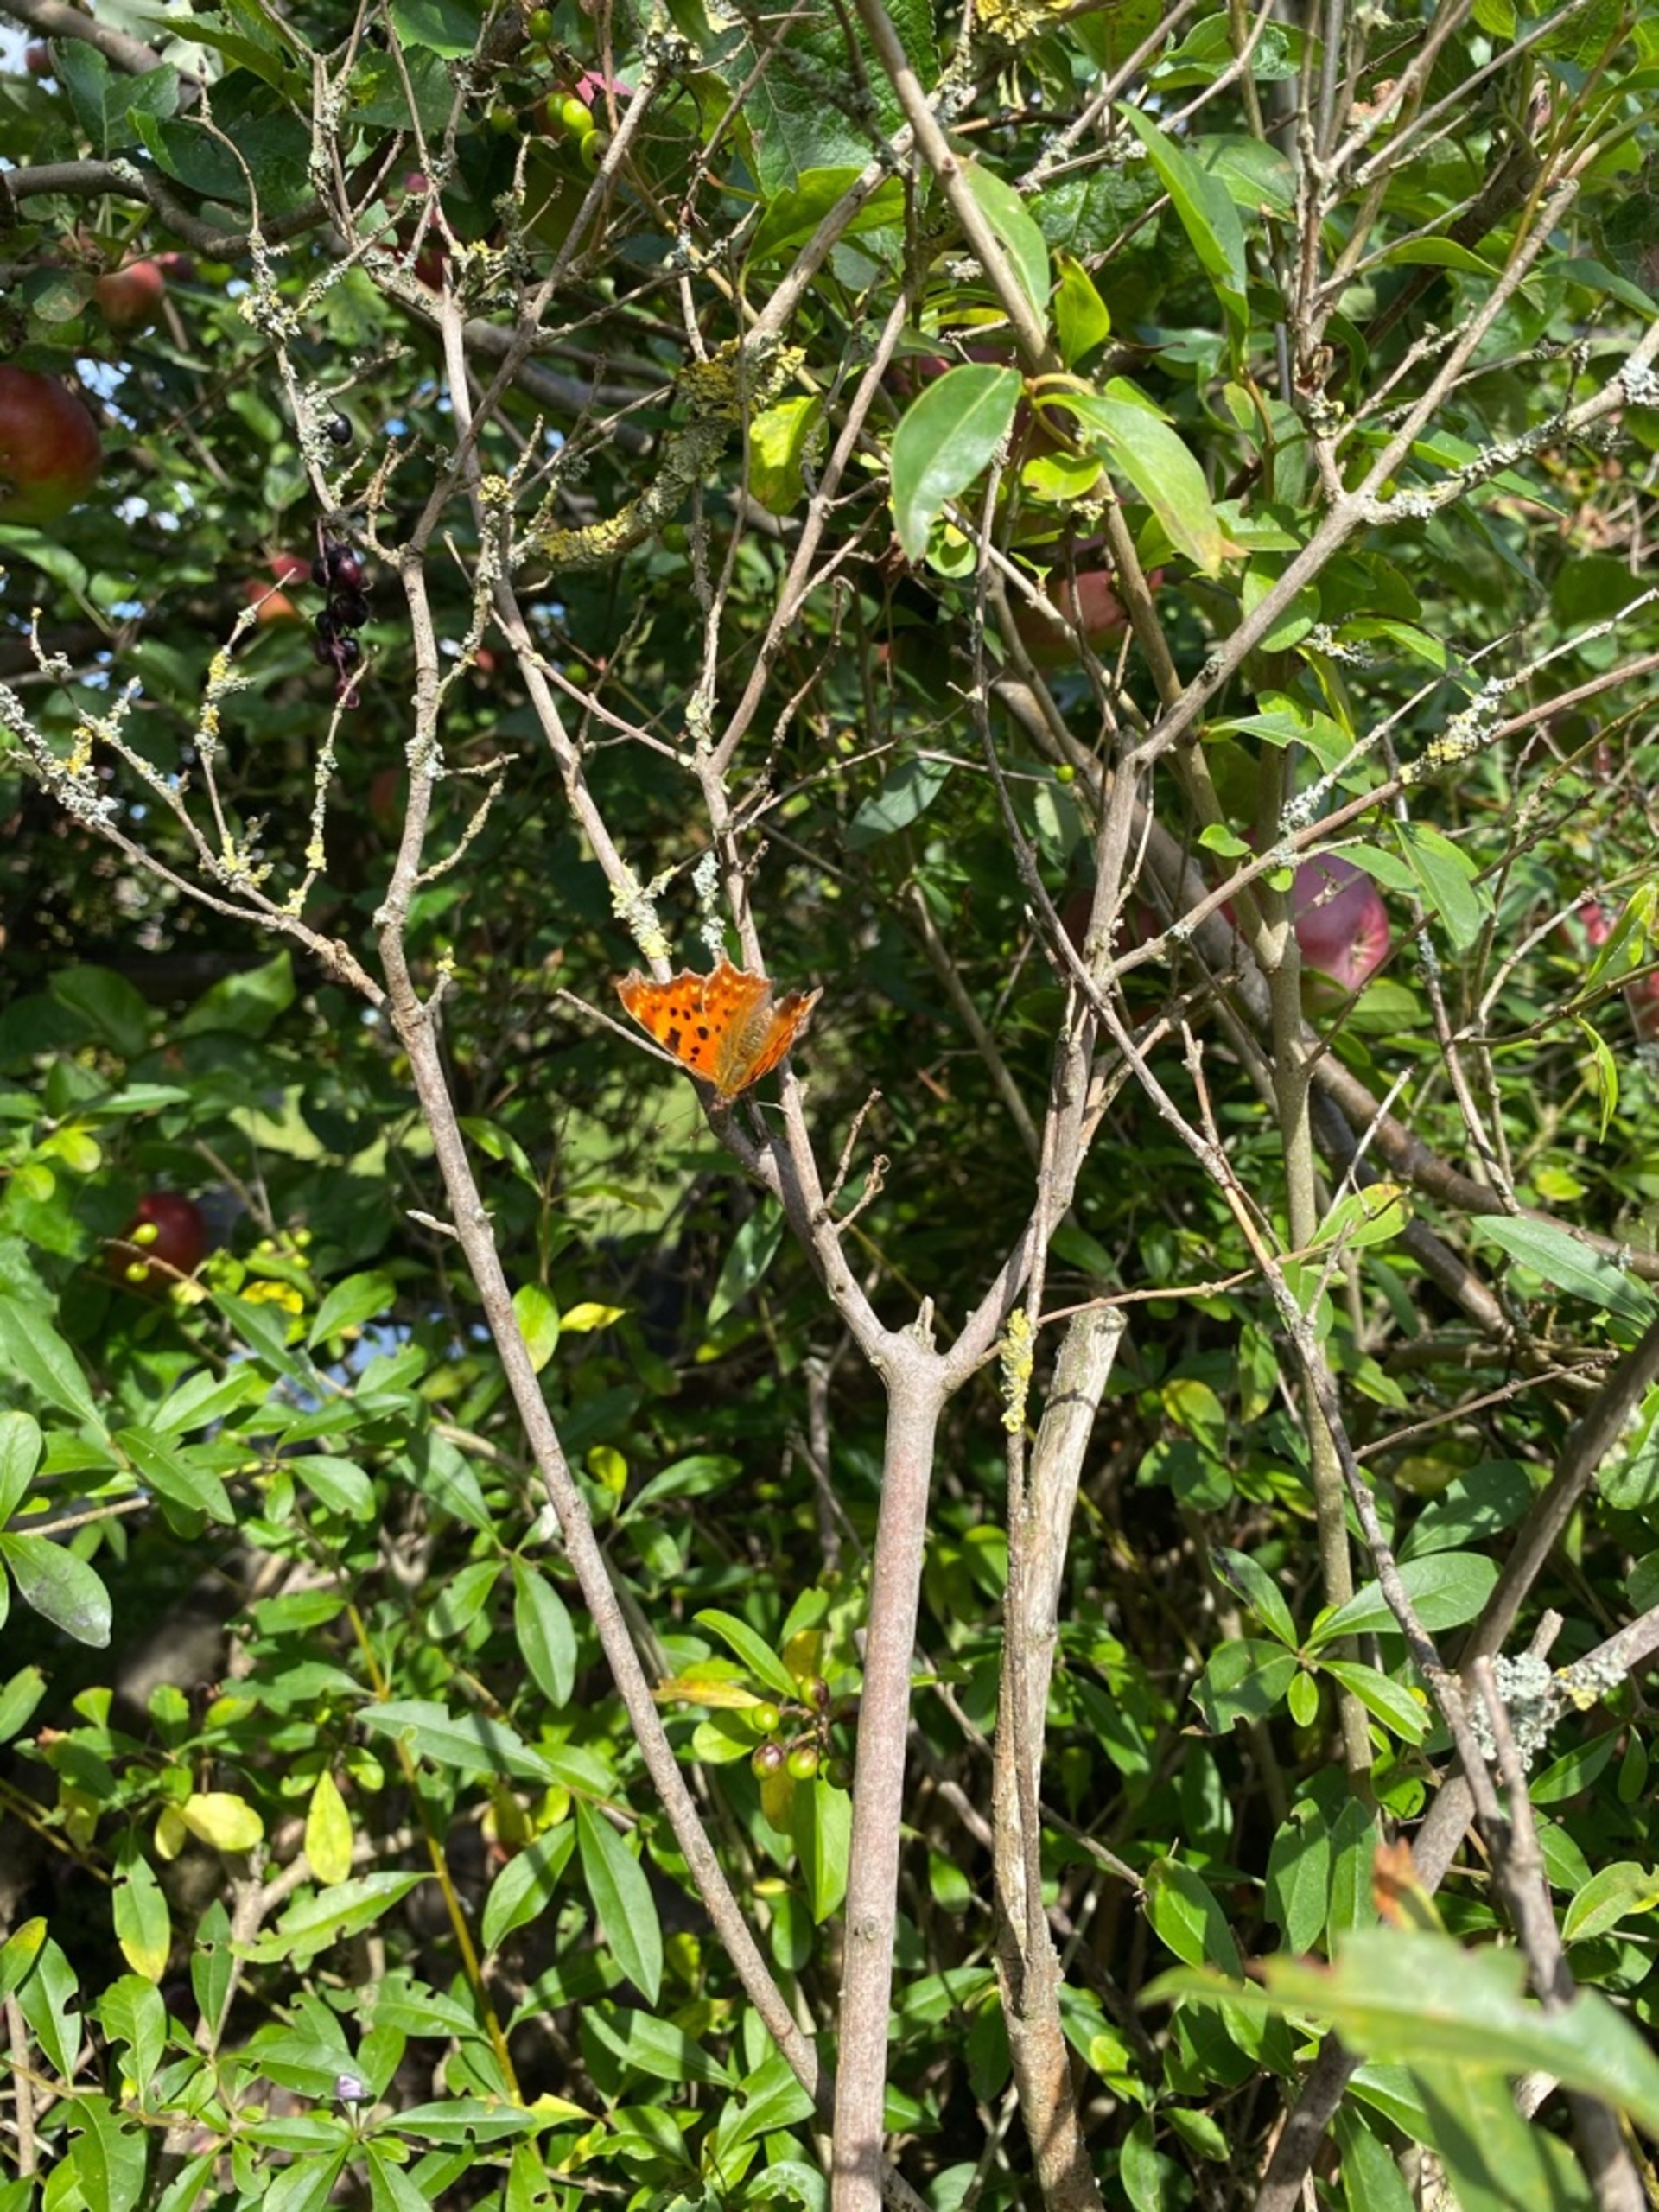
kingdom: Animalia
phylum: Arthropoda
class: Insecta
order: Lepidoptera
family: Nymphalidae
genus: Polygonia
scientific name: Polygonia c-album
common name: Det hvide C
